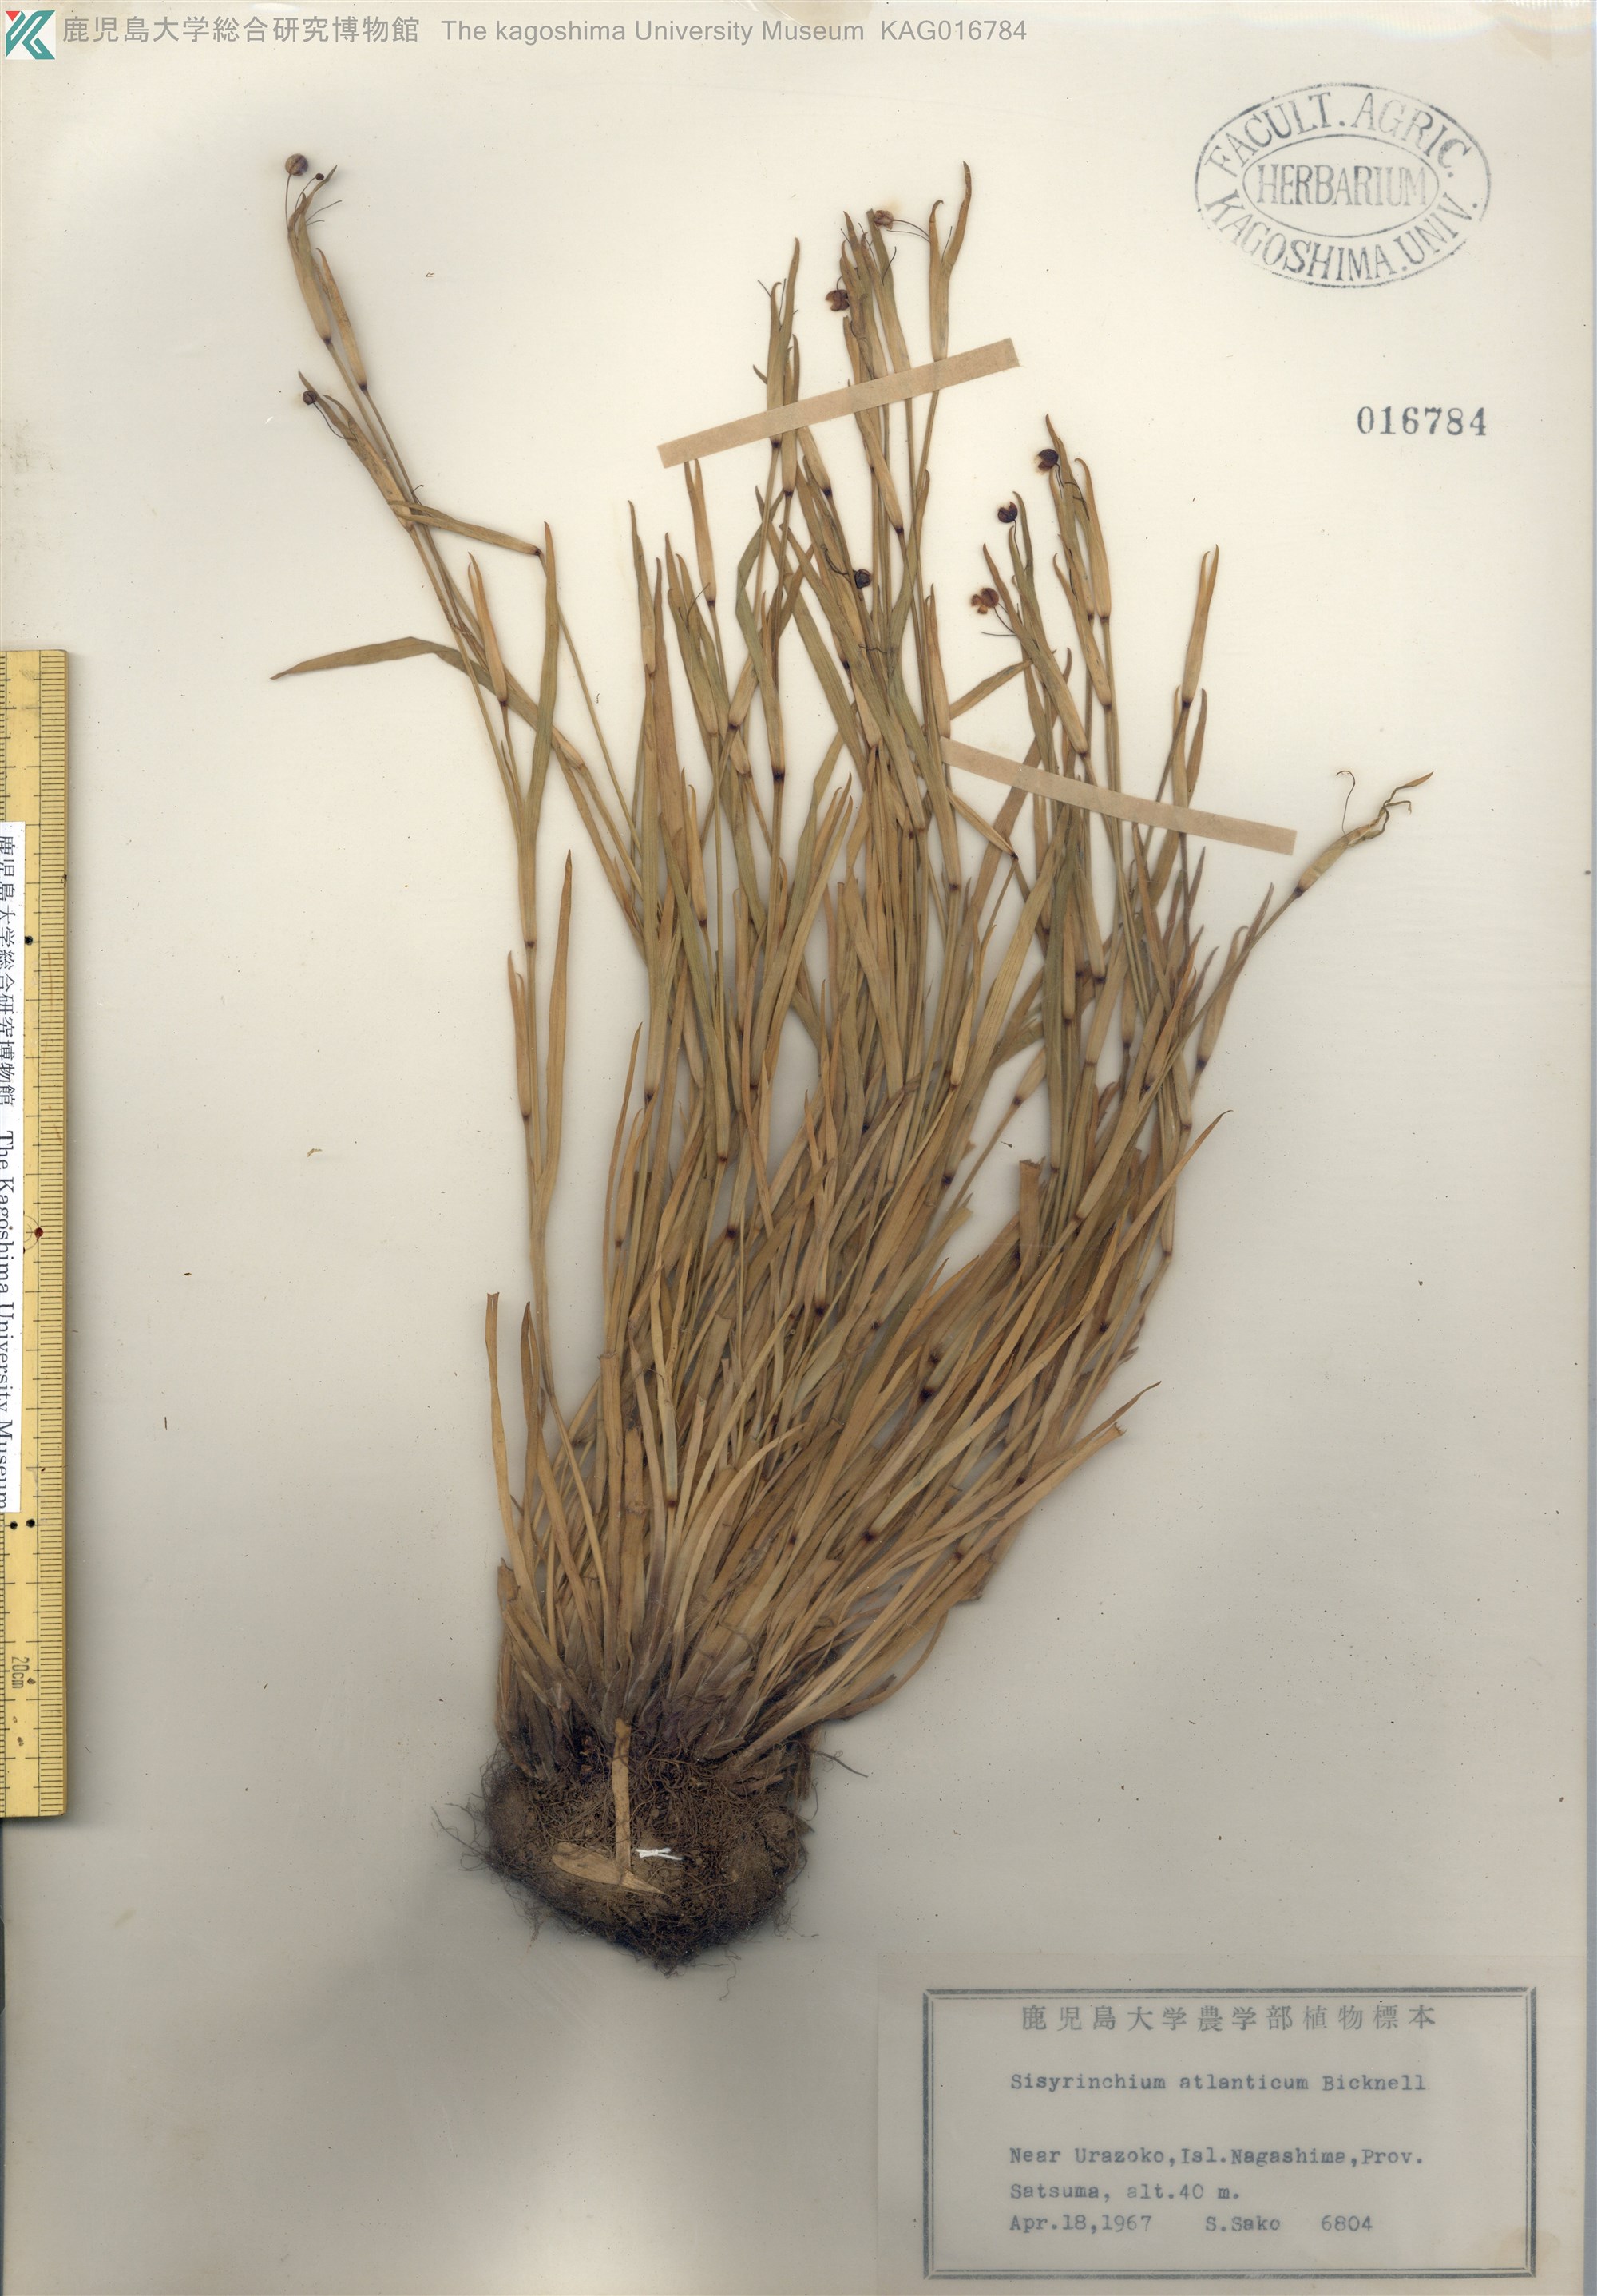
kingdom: Plantae
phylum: Tracheophyta
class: Liliopsida
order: Asparagales
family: Iridaceae
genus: Sisyrinchium
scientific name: Sisyrinchium rosulatum
